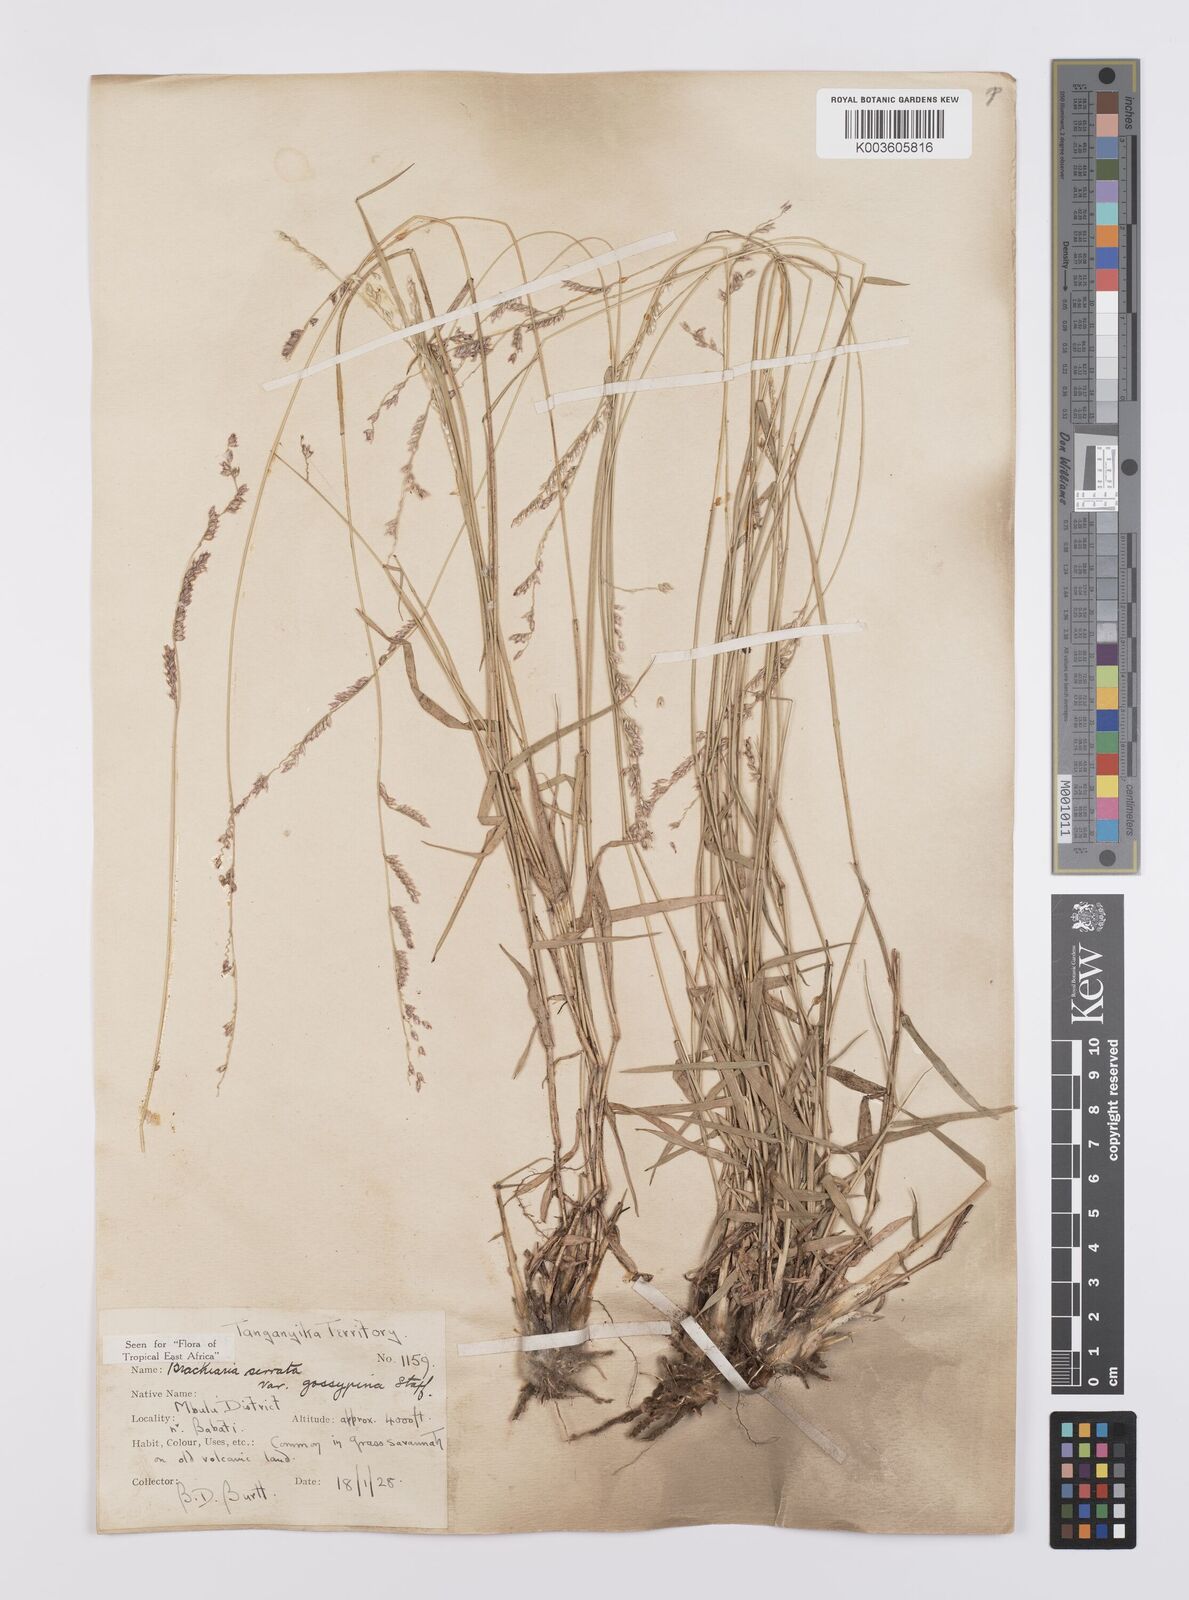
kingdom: Plantae
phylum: Tracheophyta
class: Liliopsida
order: Poales
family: Poaceae
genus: Urochloa
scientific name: Urochloa serrata
